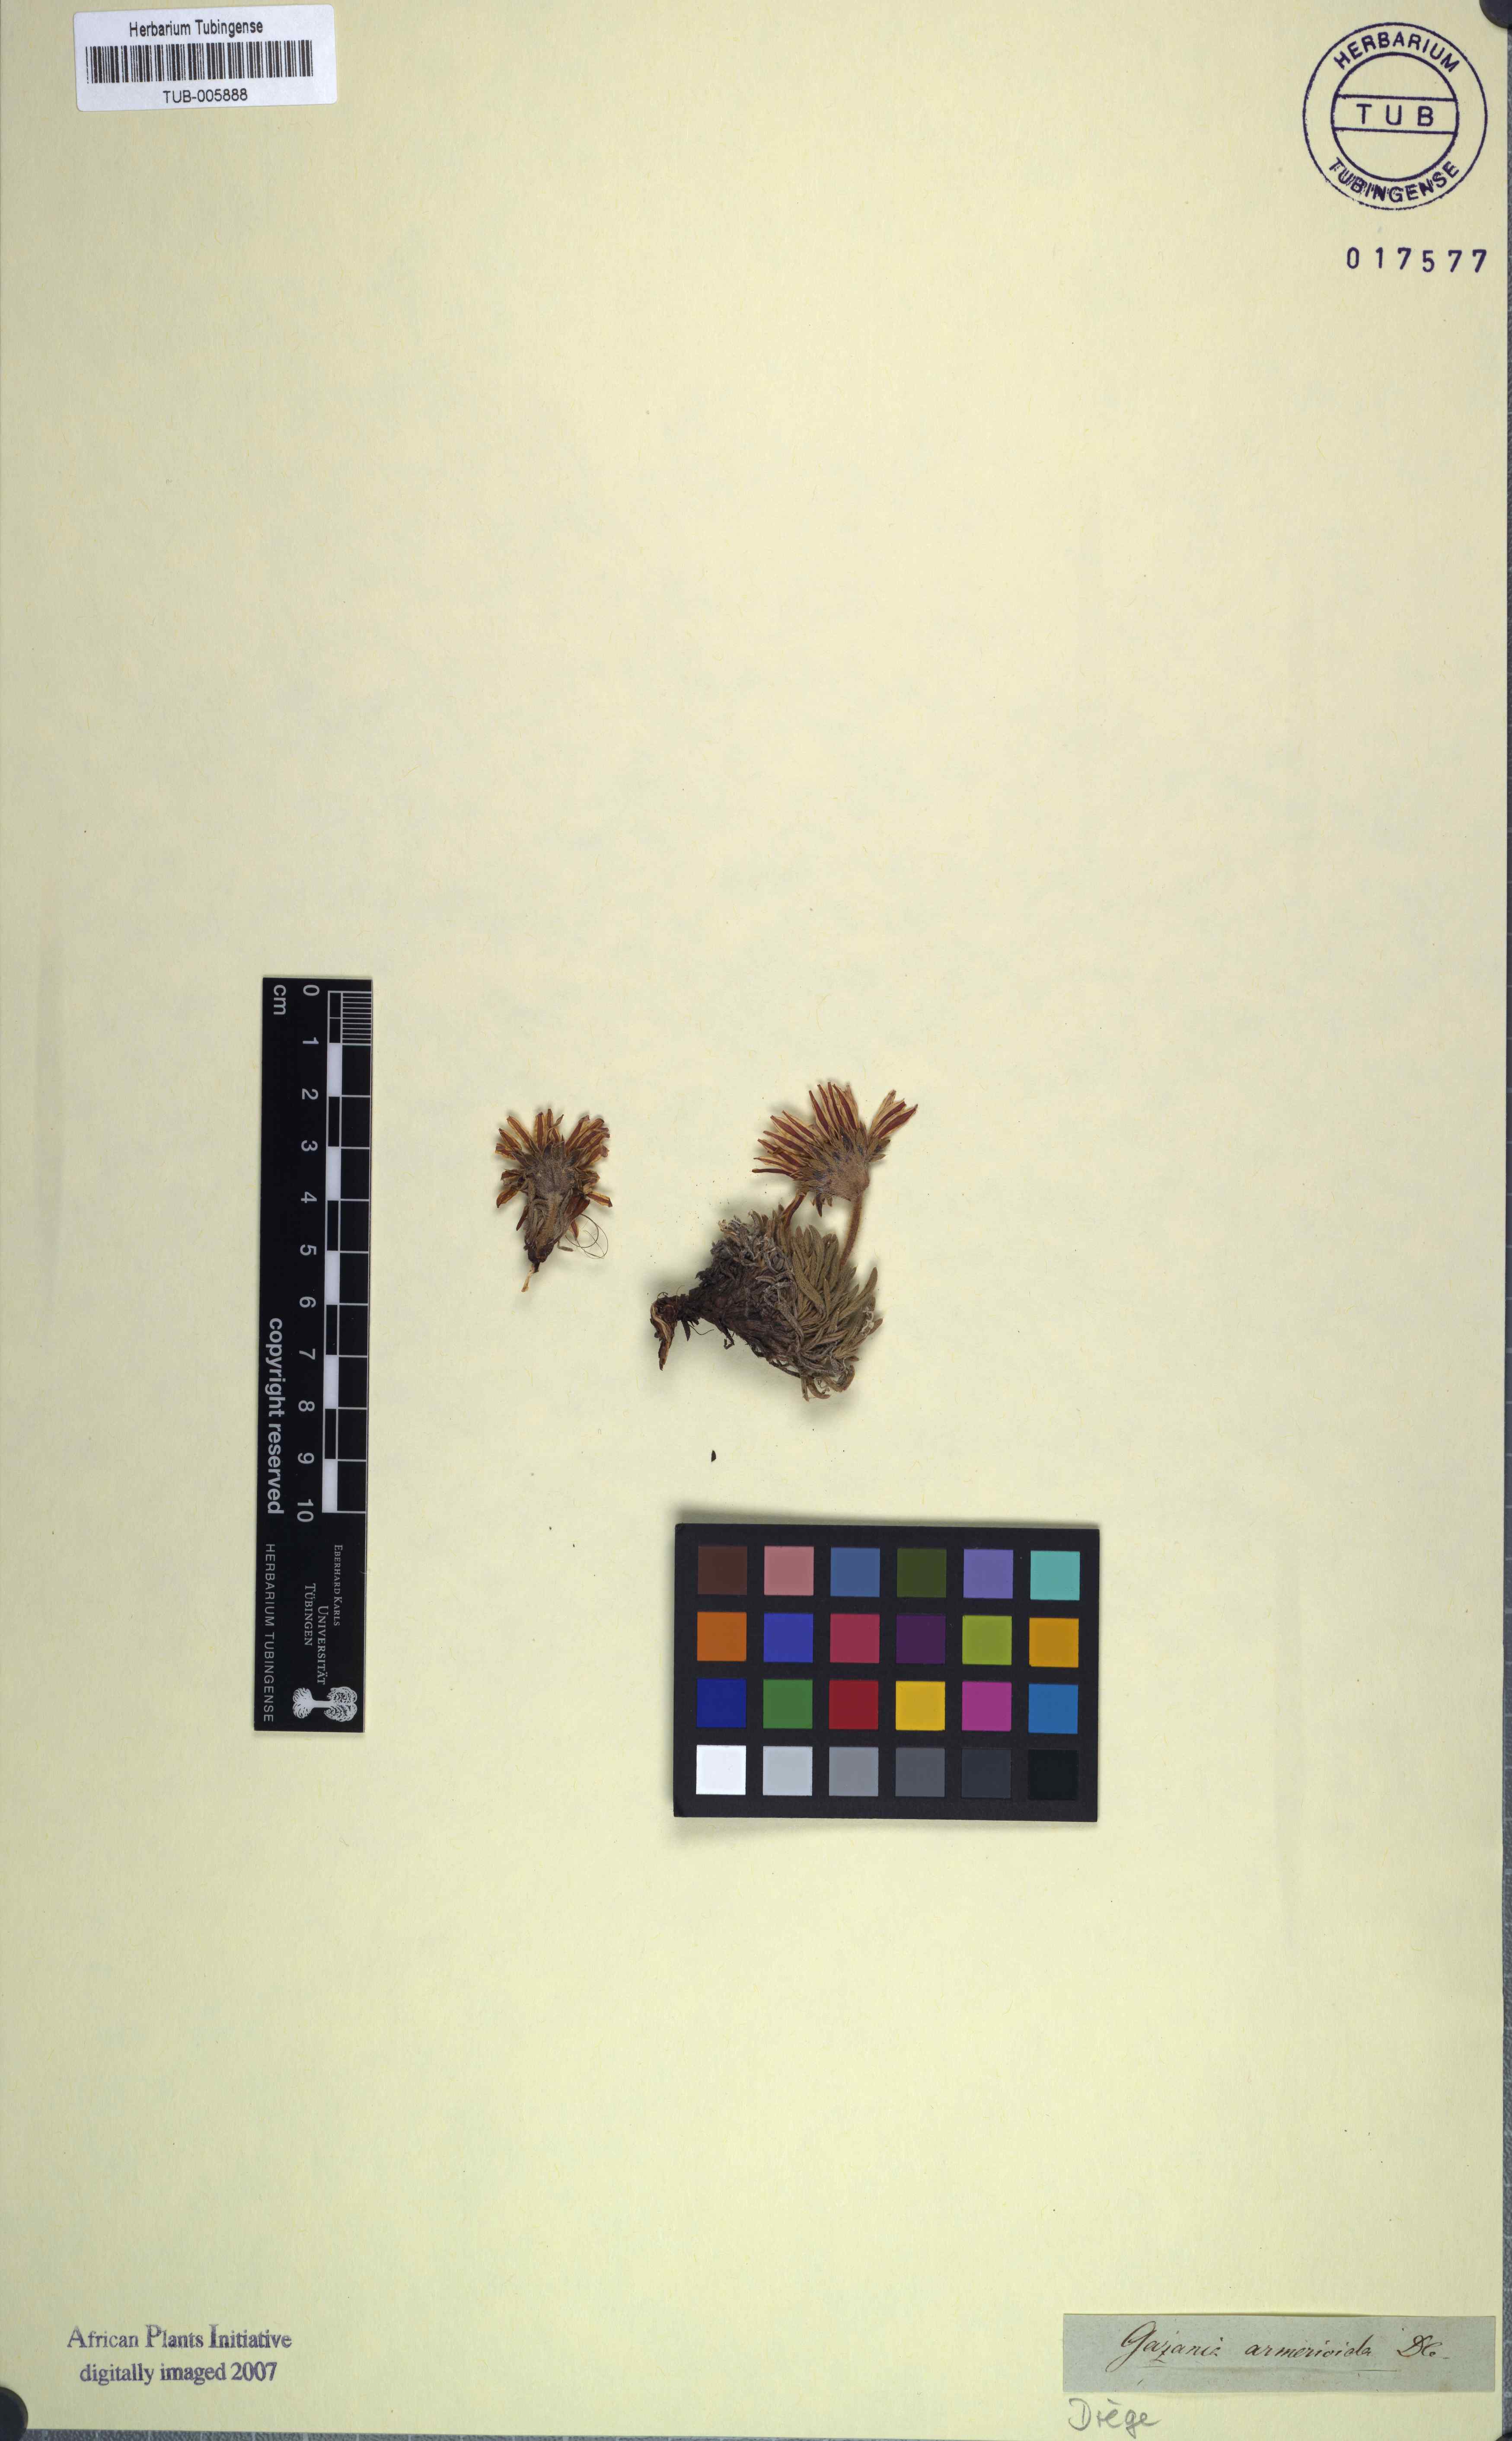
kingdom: Plantae
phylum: Tracheophyta
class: Magnoliopsida
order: Asterales
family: Asteraceae
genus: Roessleria
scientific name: Roessleria armerioides
